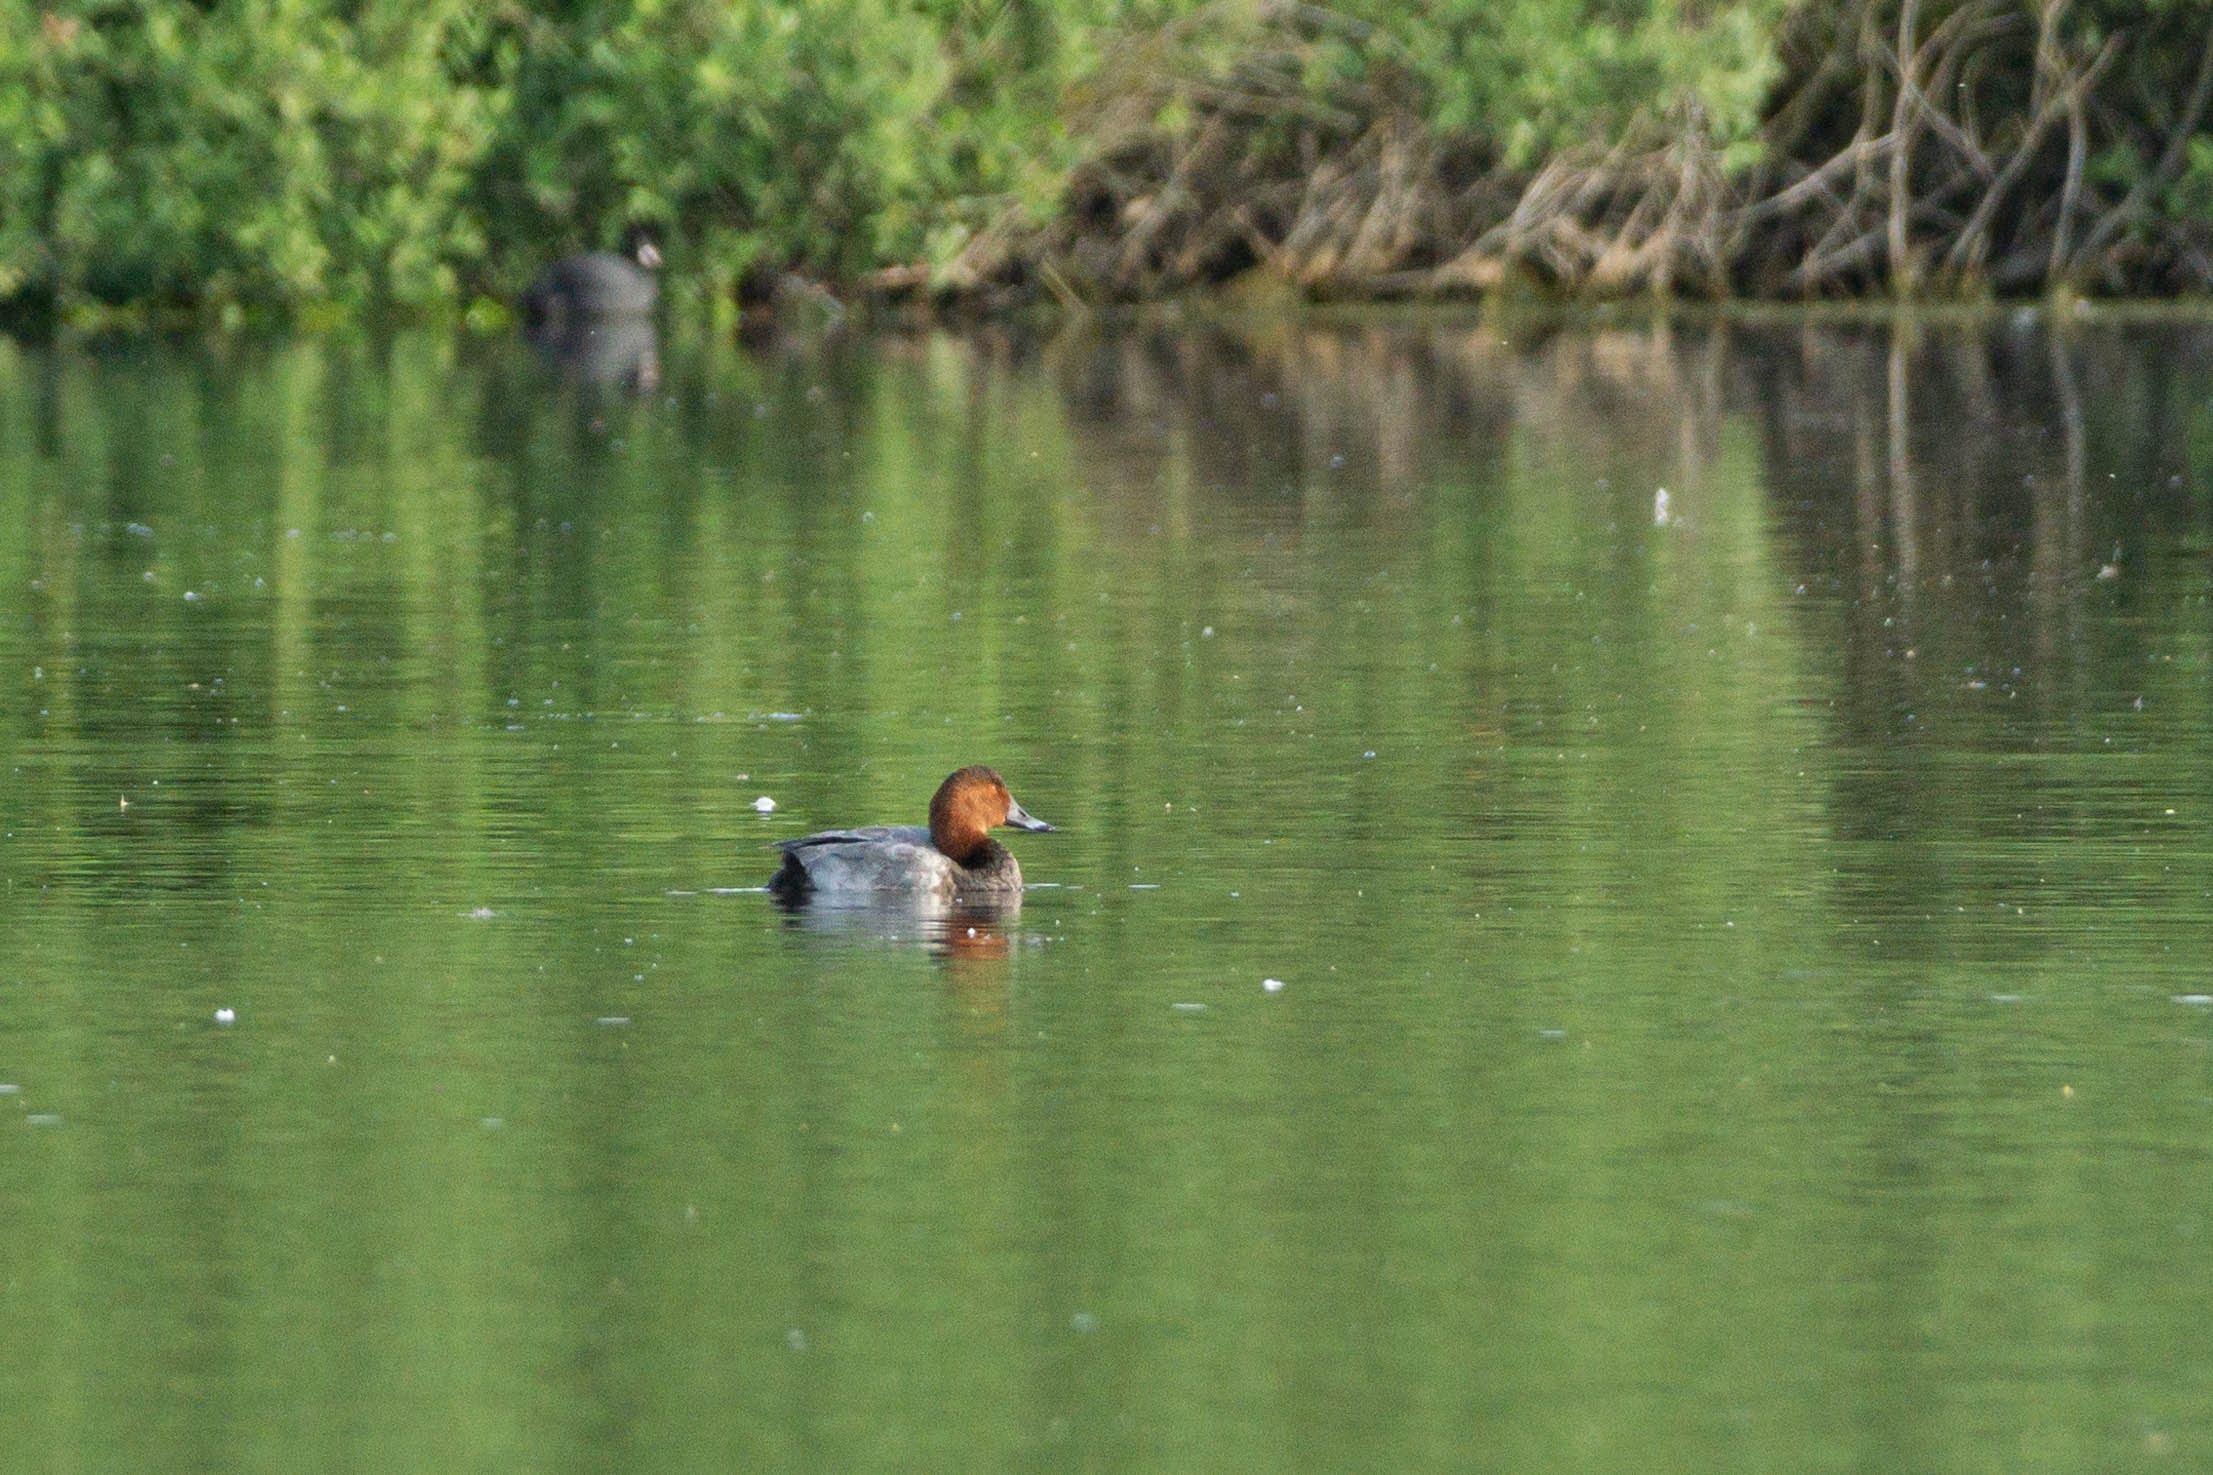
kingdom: Animalia
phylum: Chordata
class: Aves
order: Anseriformes
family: Anatidae
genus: Aythya
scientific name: Aythya ferina
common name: Taffeland
